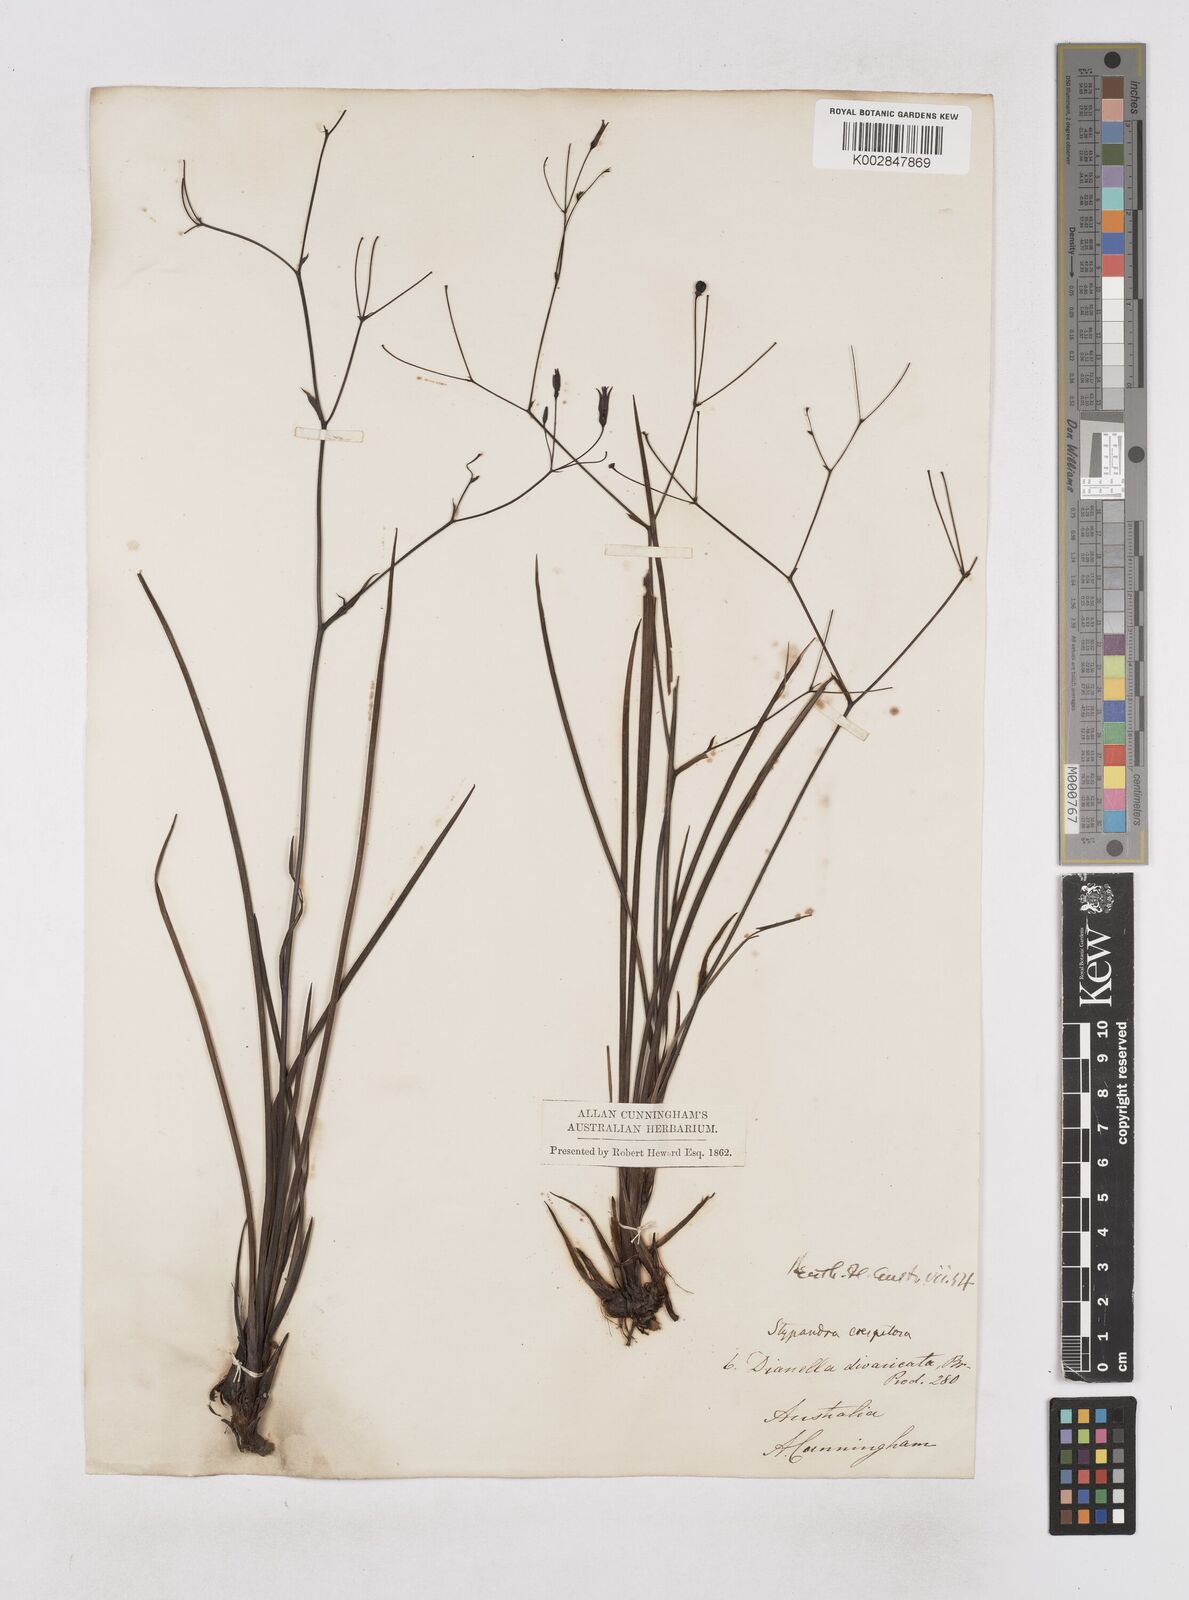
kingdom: Plantae
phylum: Tracheophyta
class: Liliopsida
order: Asparagales
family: Asphodelaceae
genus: Thelionema
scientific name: Thelionema caespitosum
